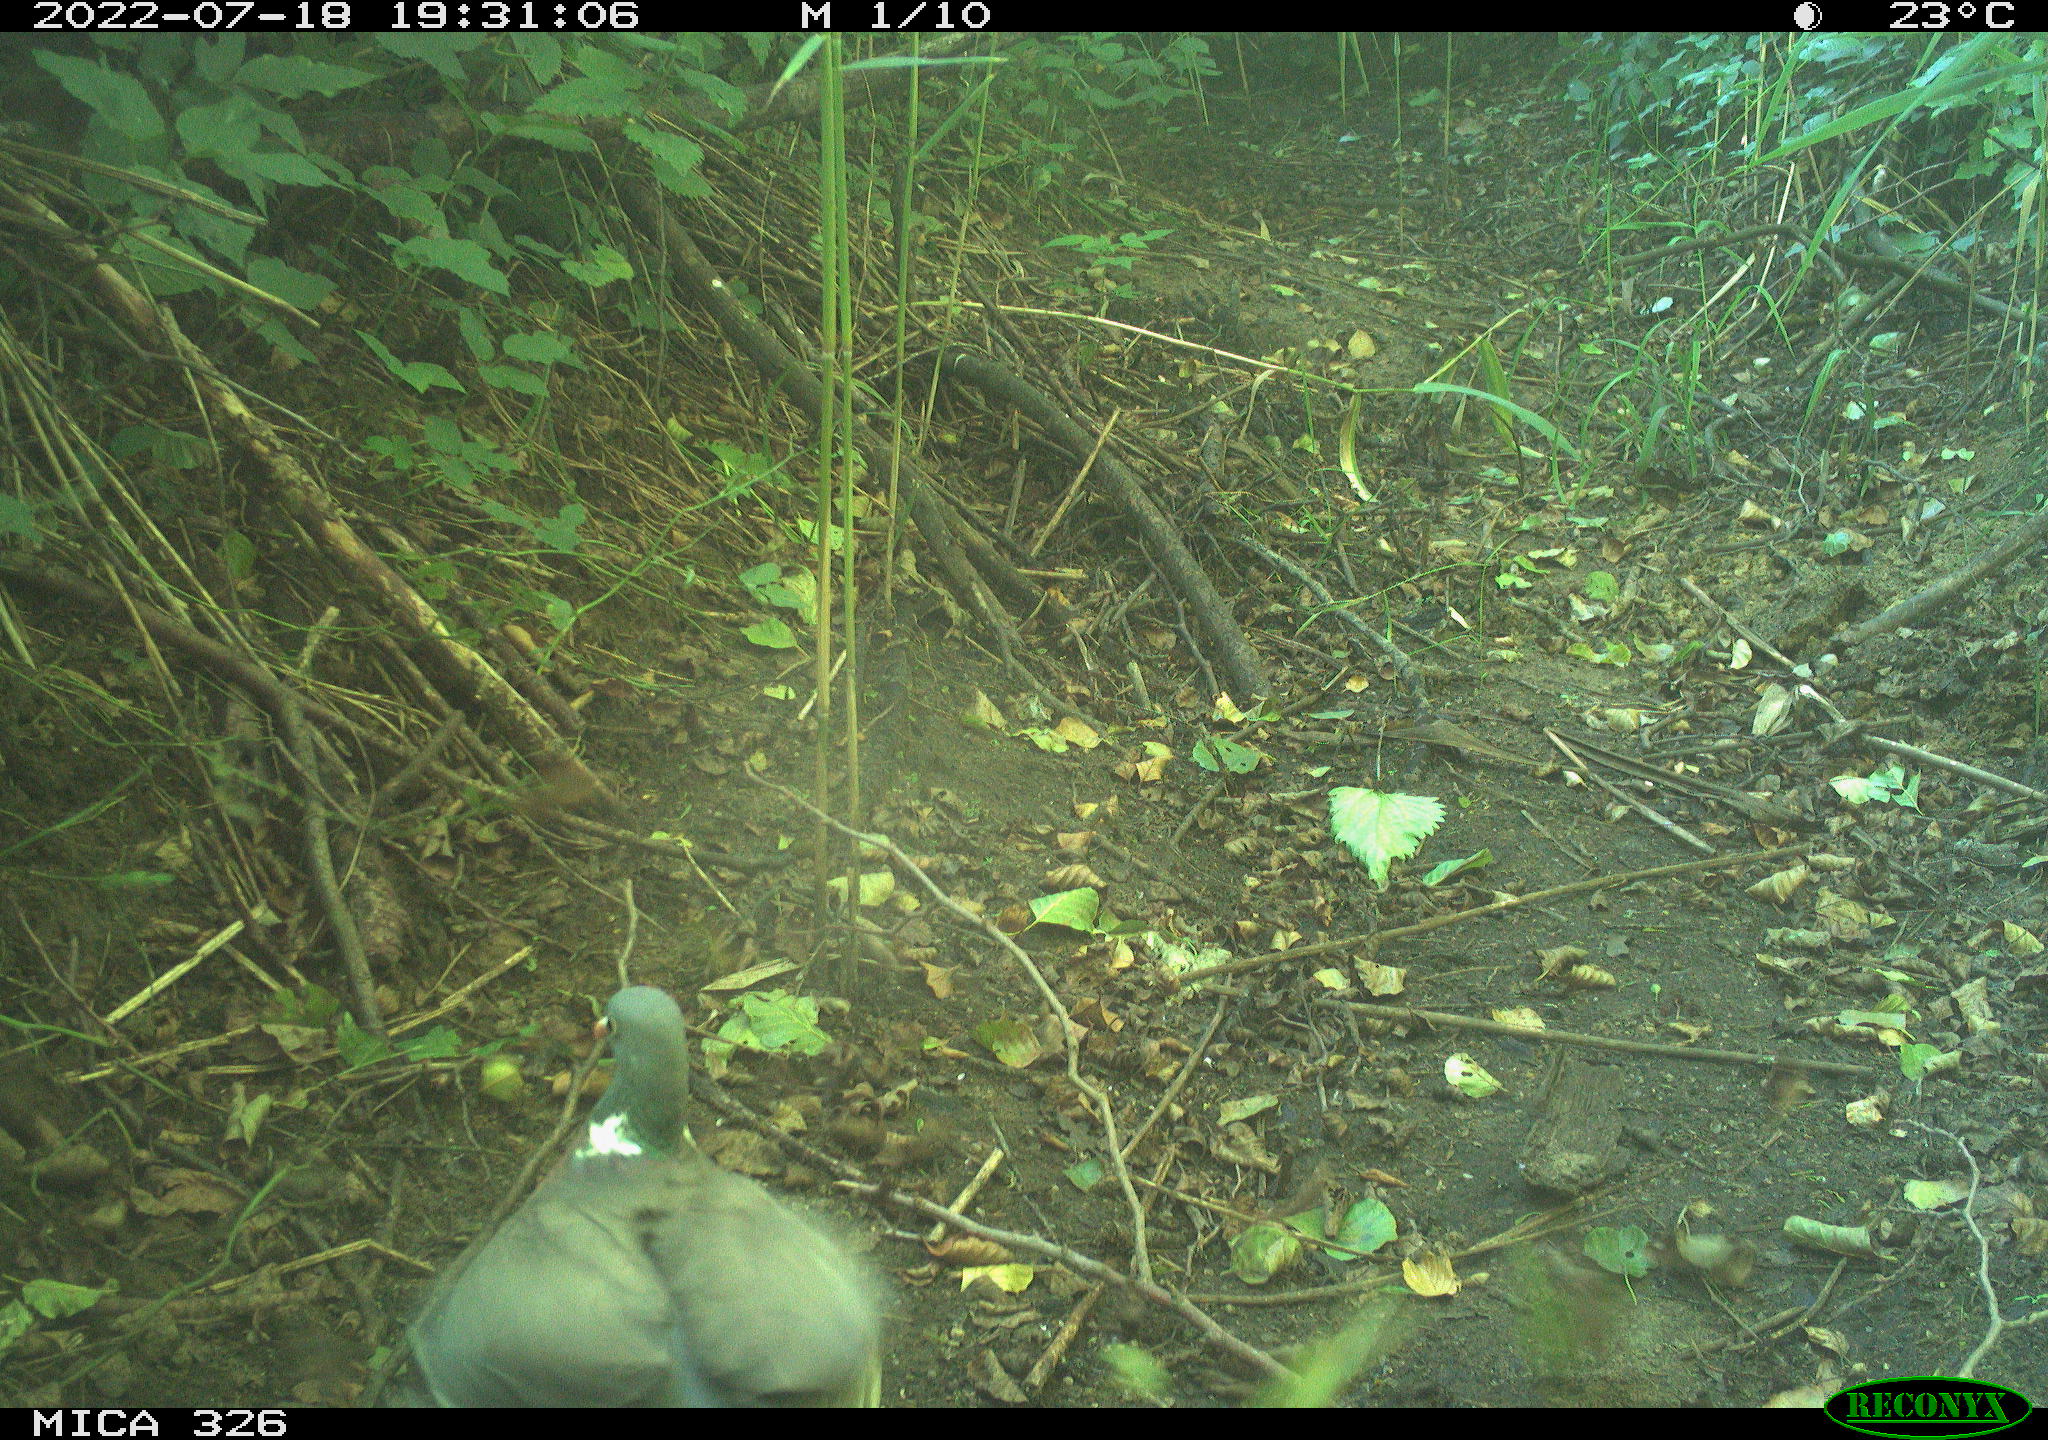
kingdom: Animalia
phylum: Chordata
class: Aves
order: Columbiformes
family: Columbidae
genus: Columba
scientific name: Columba palumbus
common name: Common wood pigeon
